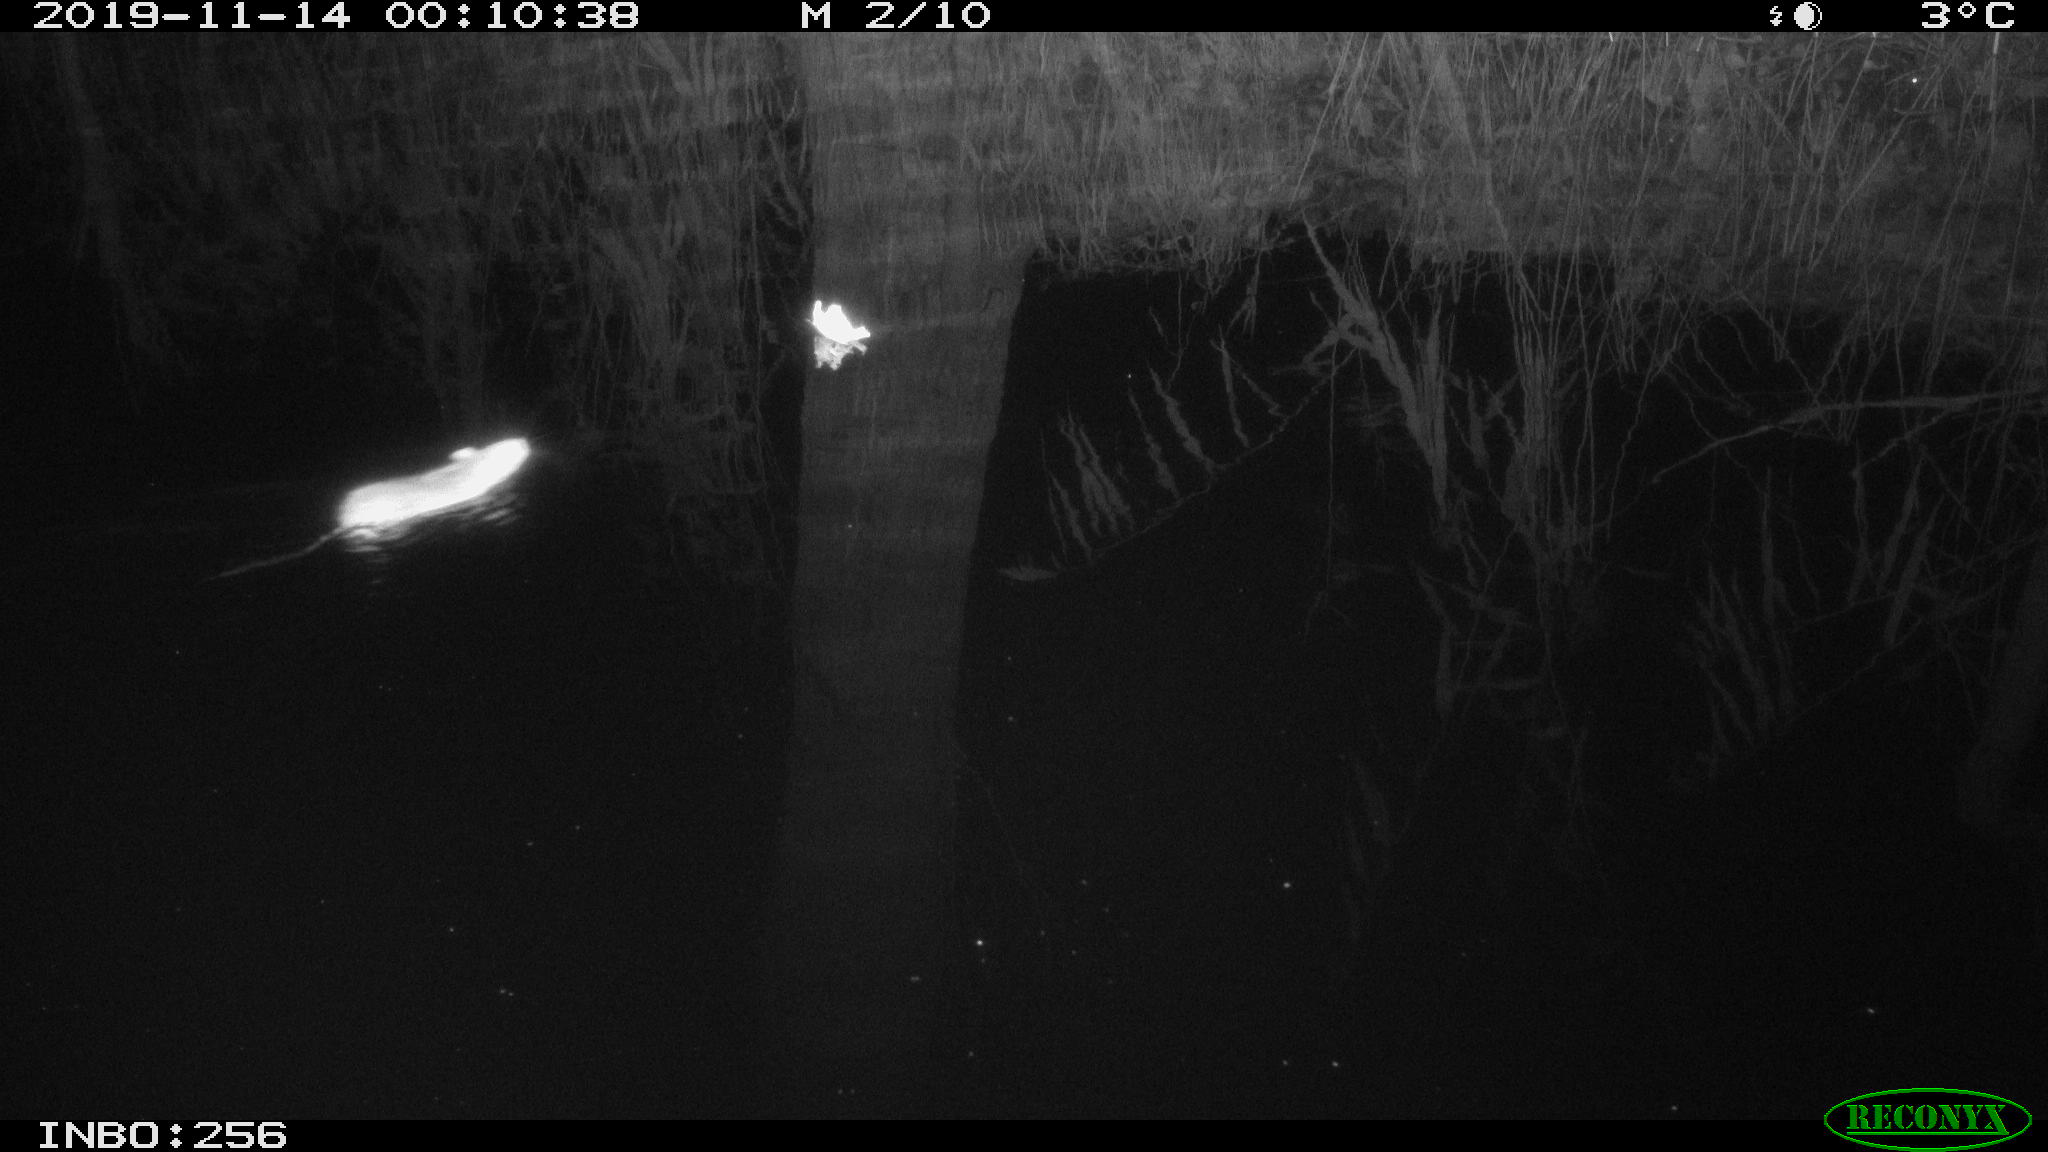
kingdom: Animalia
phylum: Chordata
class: Mammalia
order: Rodentia
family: Muridae
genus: Rattus
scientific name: Rattus norvegicus
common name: Brown rat
